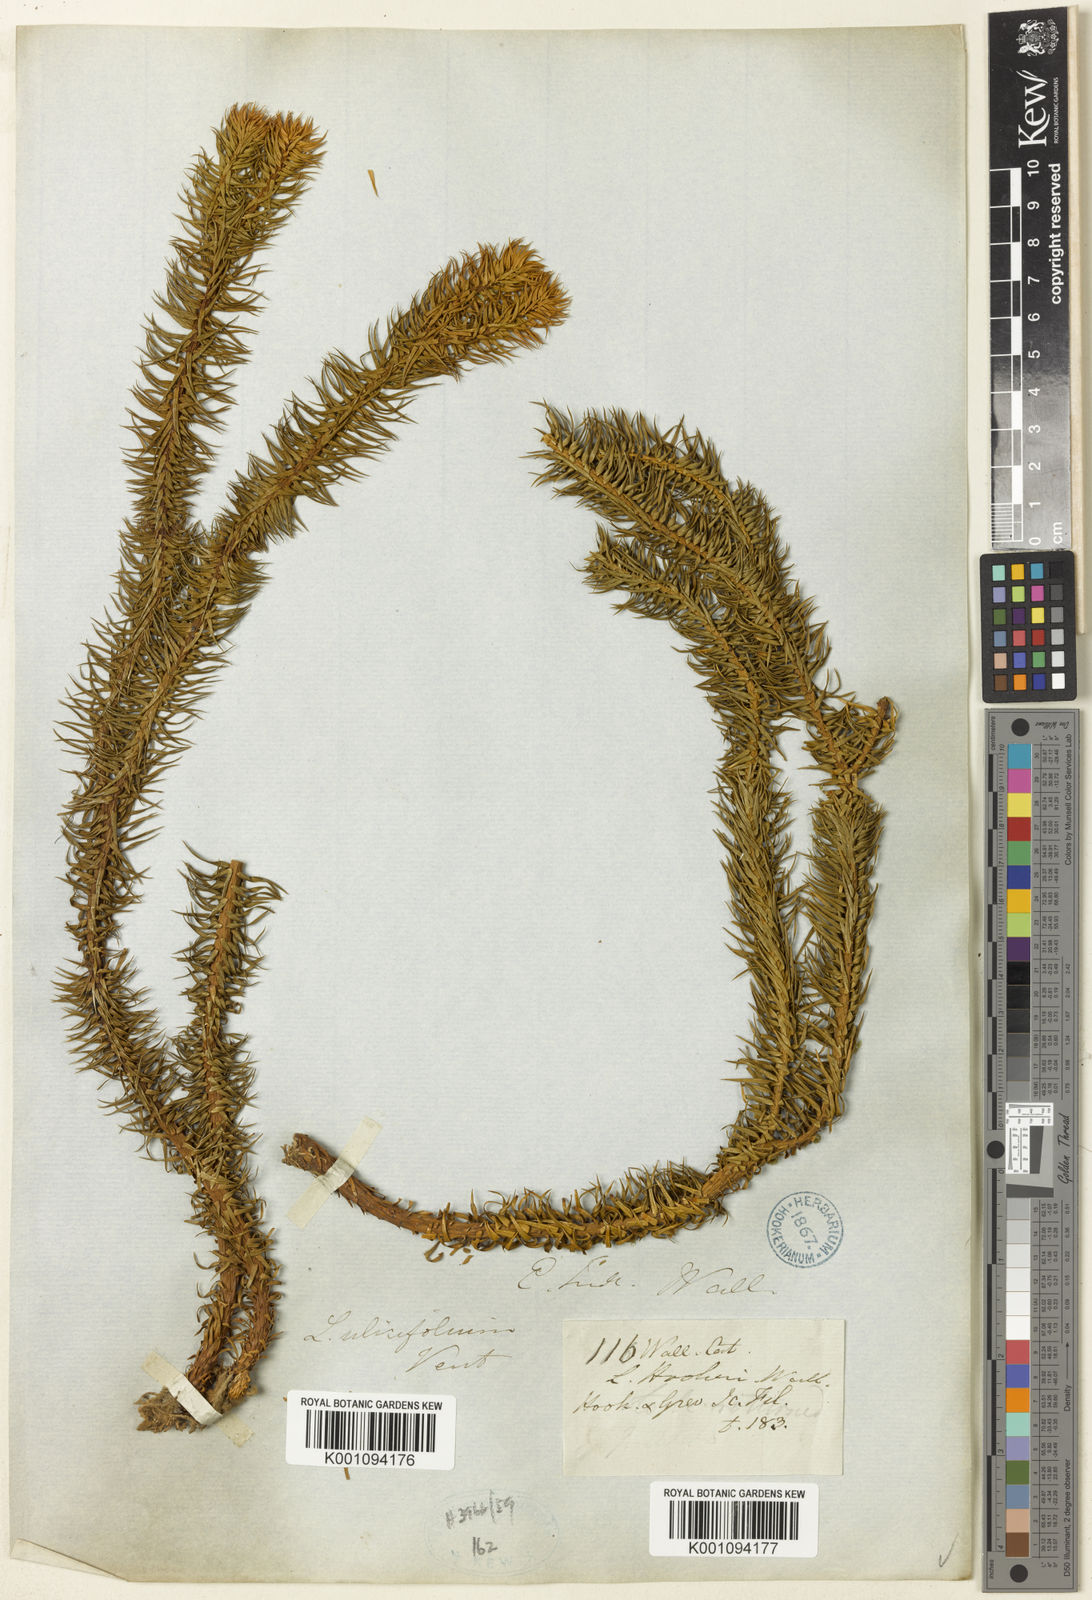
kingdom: Plantae
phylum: Tracheophyta
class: Lycopodiopsida
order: Lycopodiales
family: Lycopodiaceae
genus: Phlegmariurus
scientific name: Phlegmariurus squarrosus
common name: Rock tassel-fern
